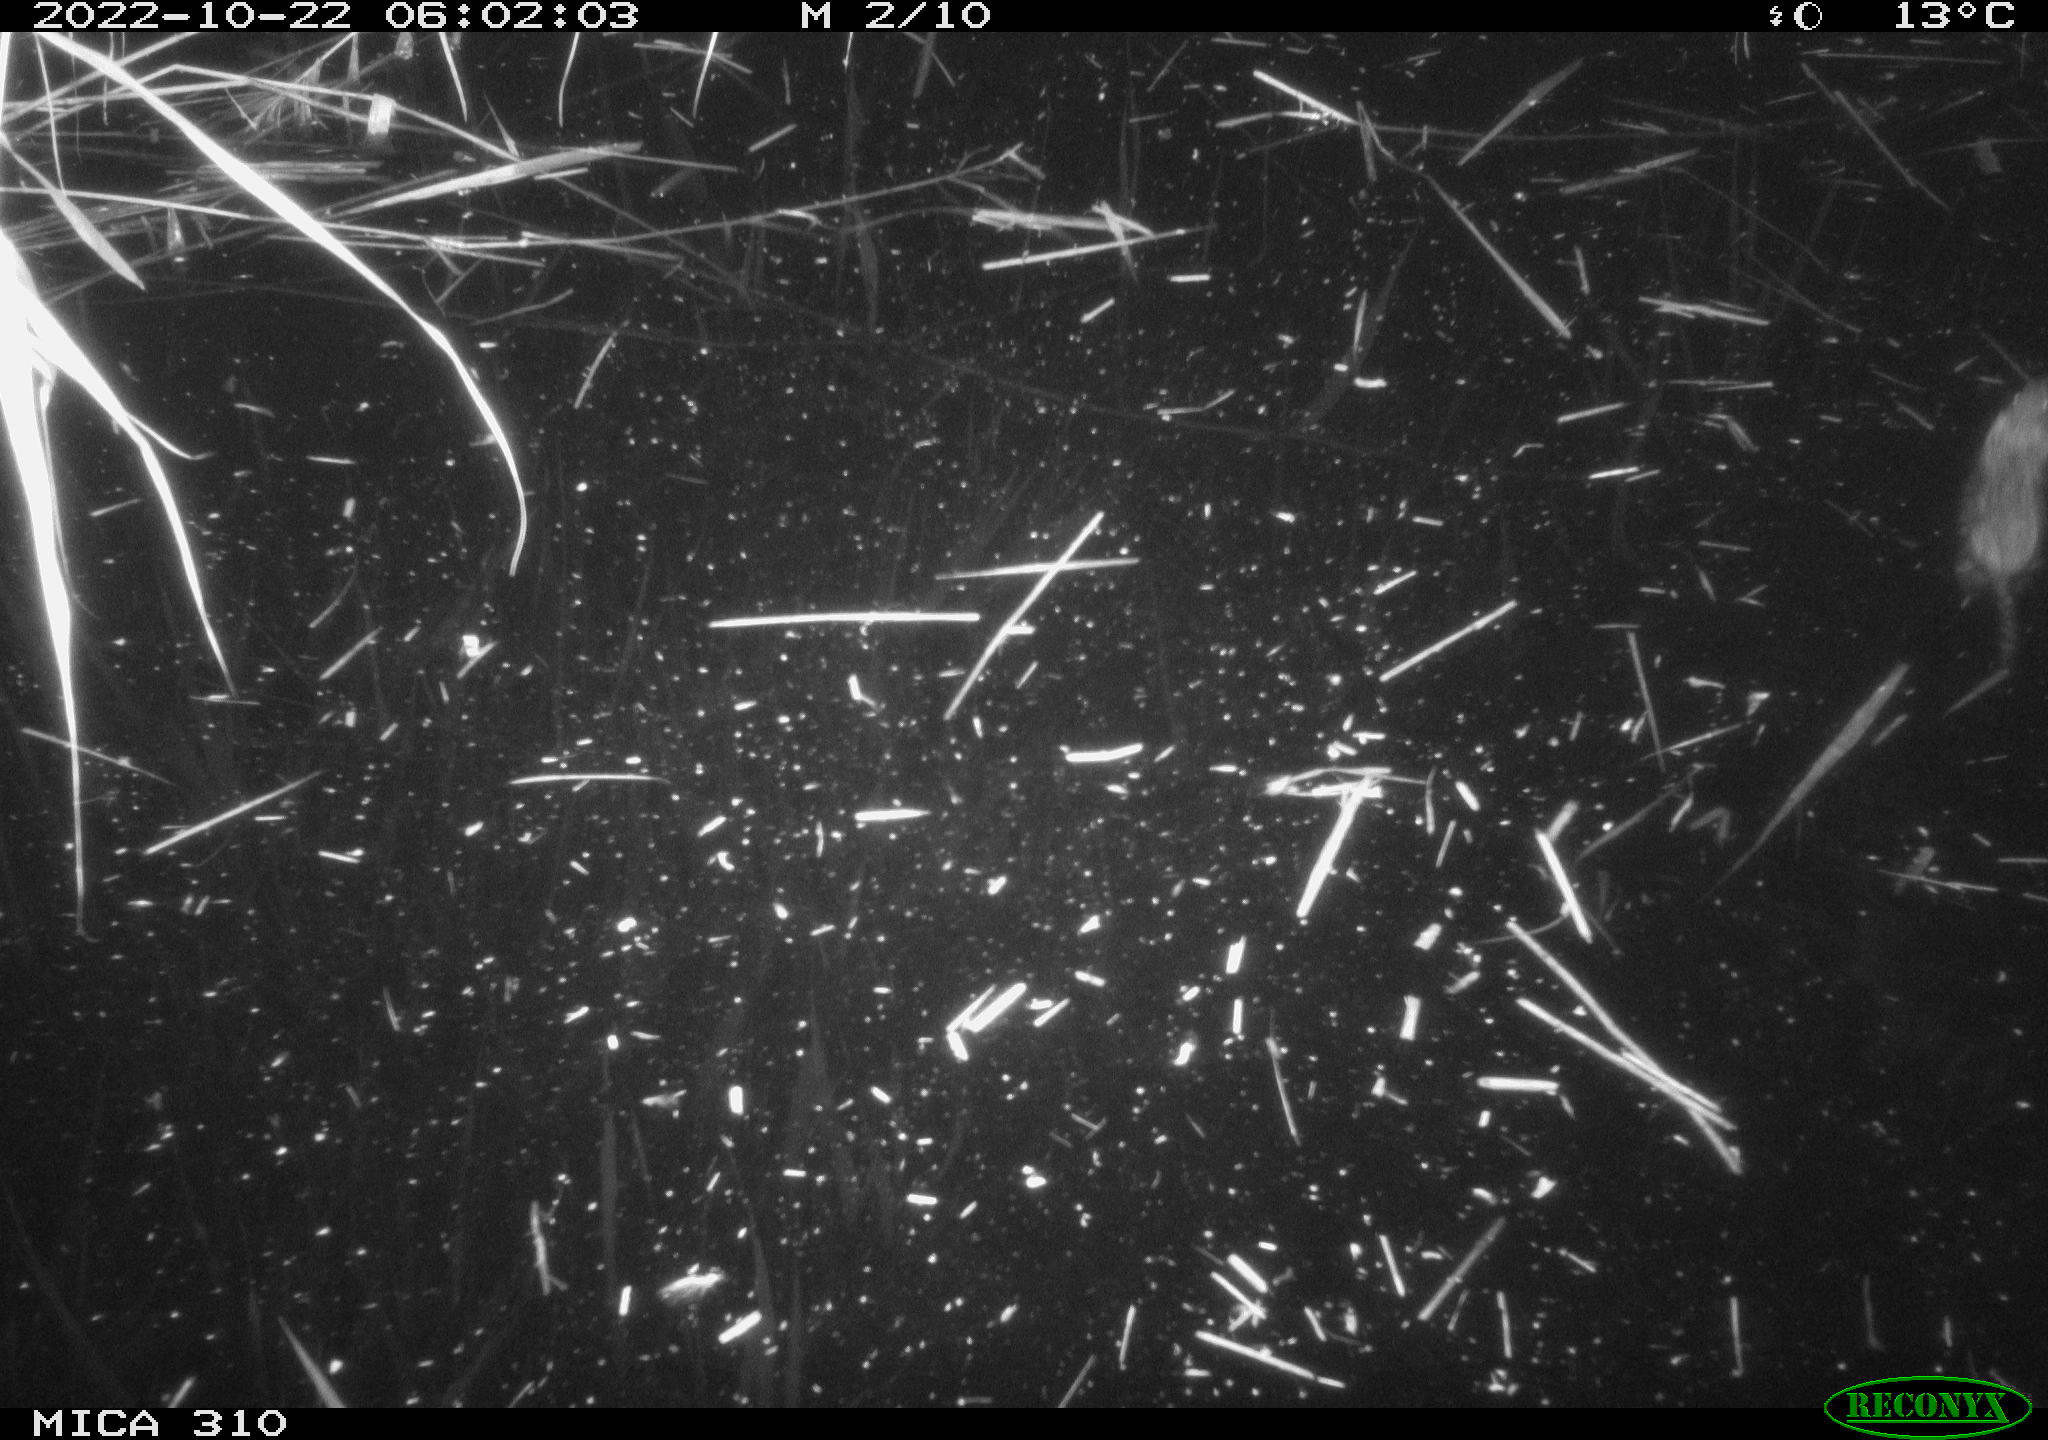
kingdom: Animalia
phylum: Chordata
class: Mammalia
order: Rodentia
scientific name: Rodentia
